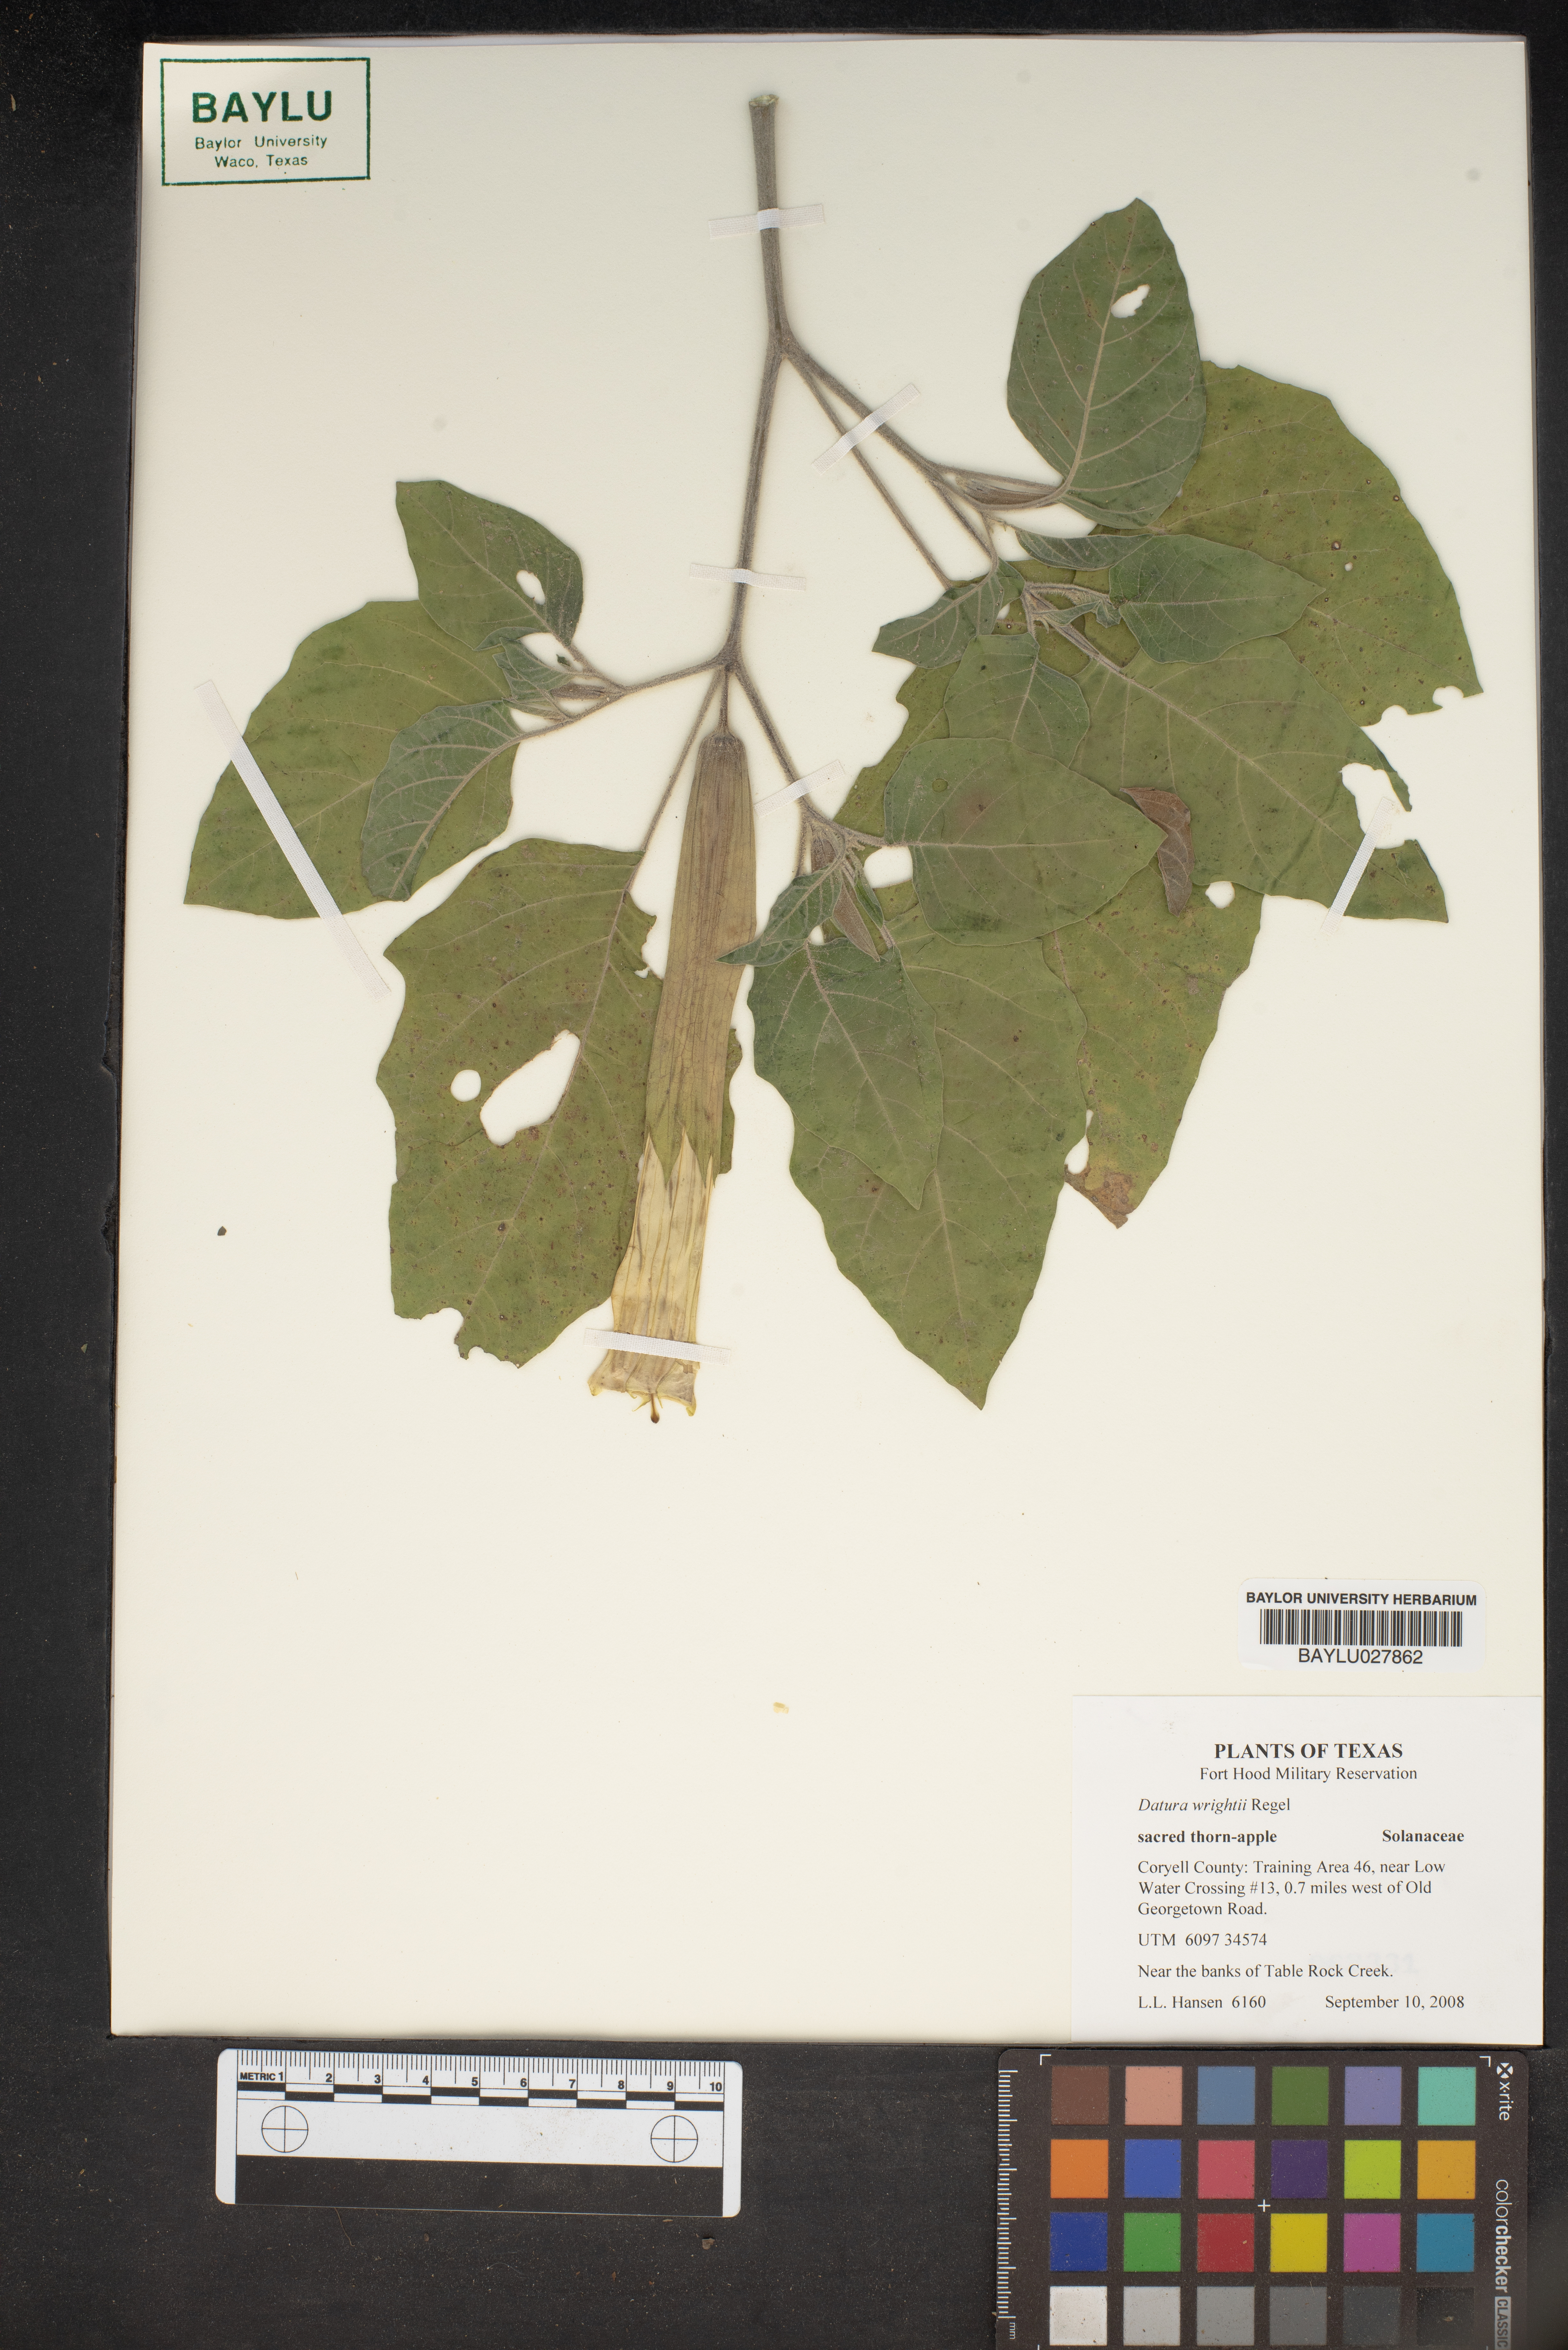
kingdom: Plantae
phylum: Tracheophyta
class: Magnoliopsida
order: Solanales
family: Solanaceae
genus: Datura
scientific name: Datura wrightii
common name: Sacred thorn-apple
